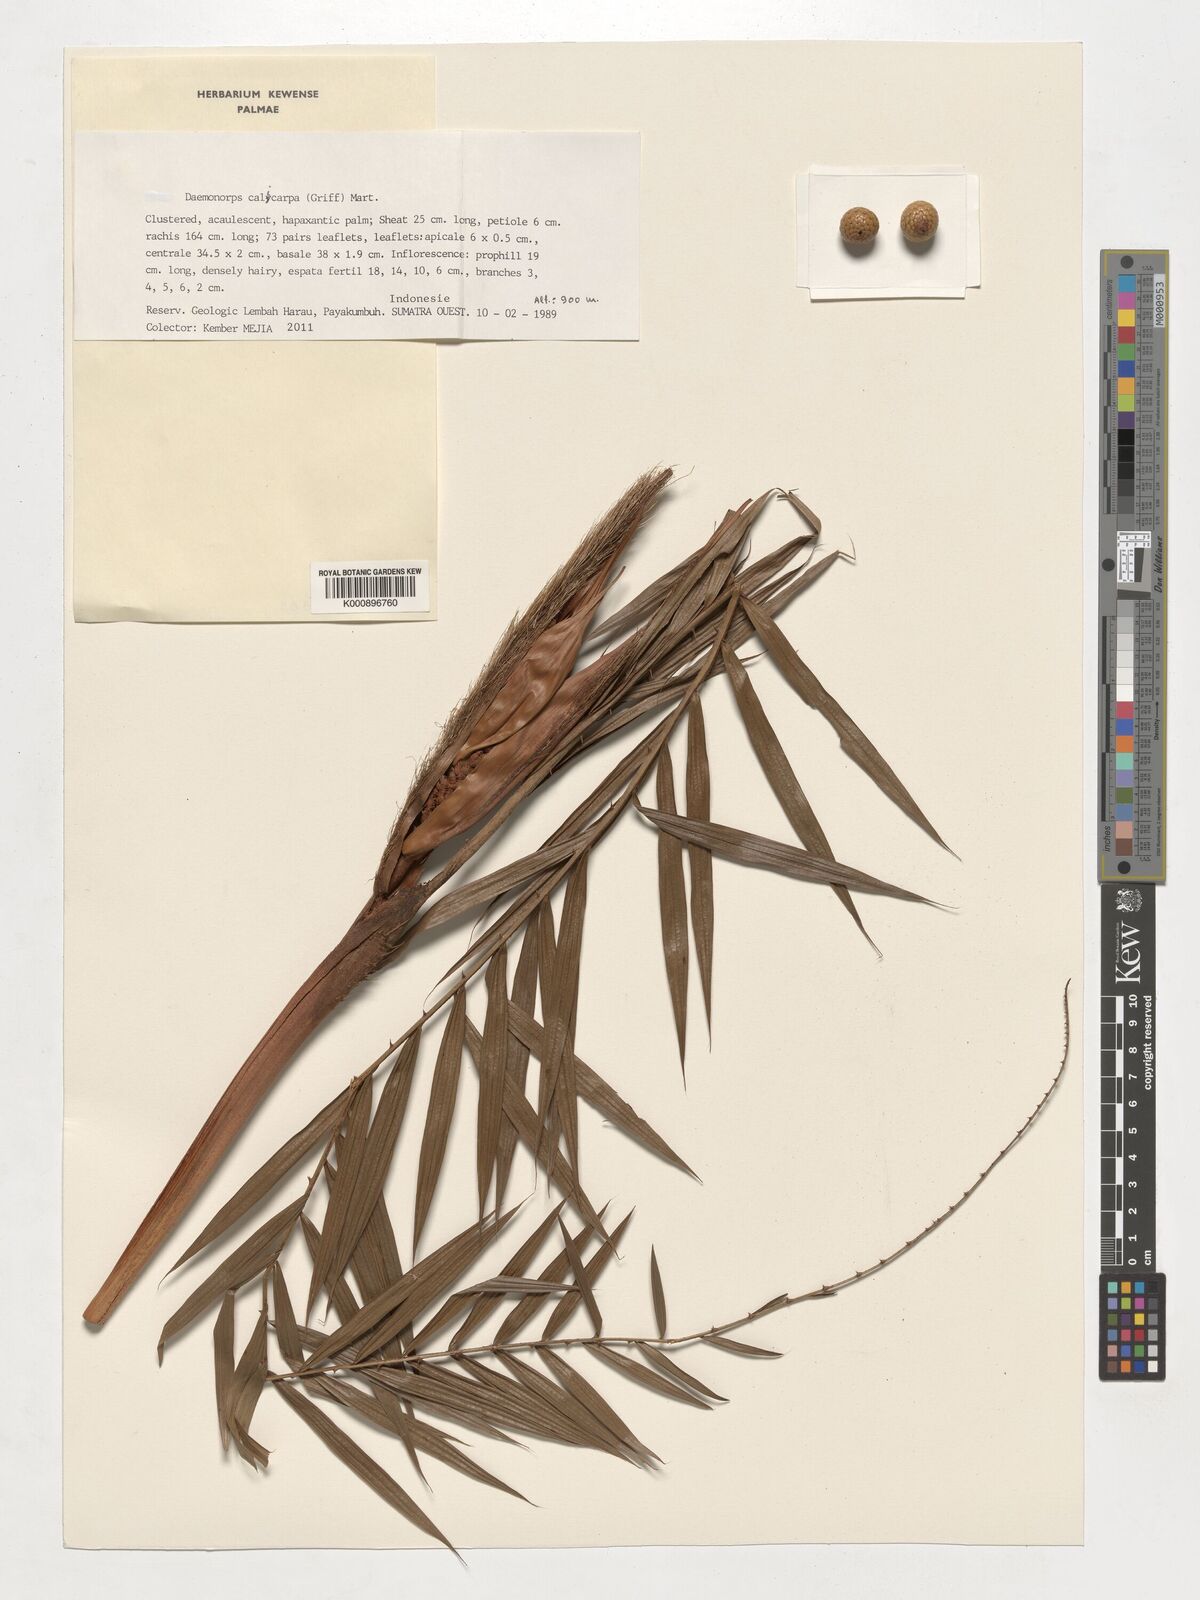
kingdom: Plantae
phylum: Tracheophyta
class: Liliopsida
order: Arecales
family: Arecaceae
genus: Calamus
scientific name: Calamus calicarpus
